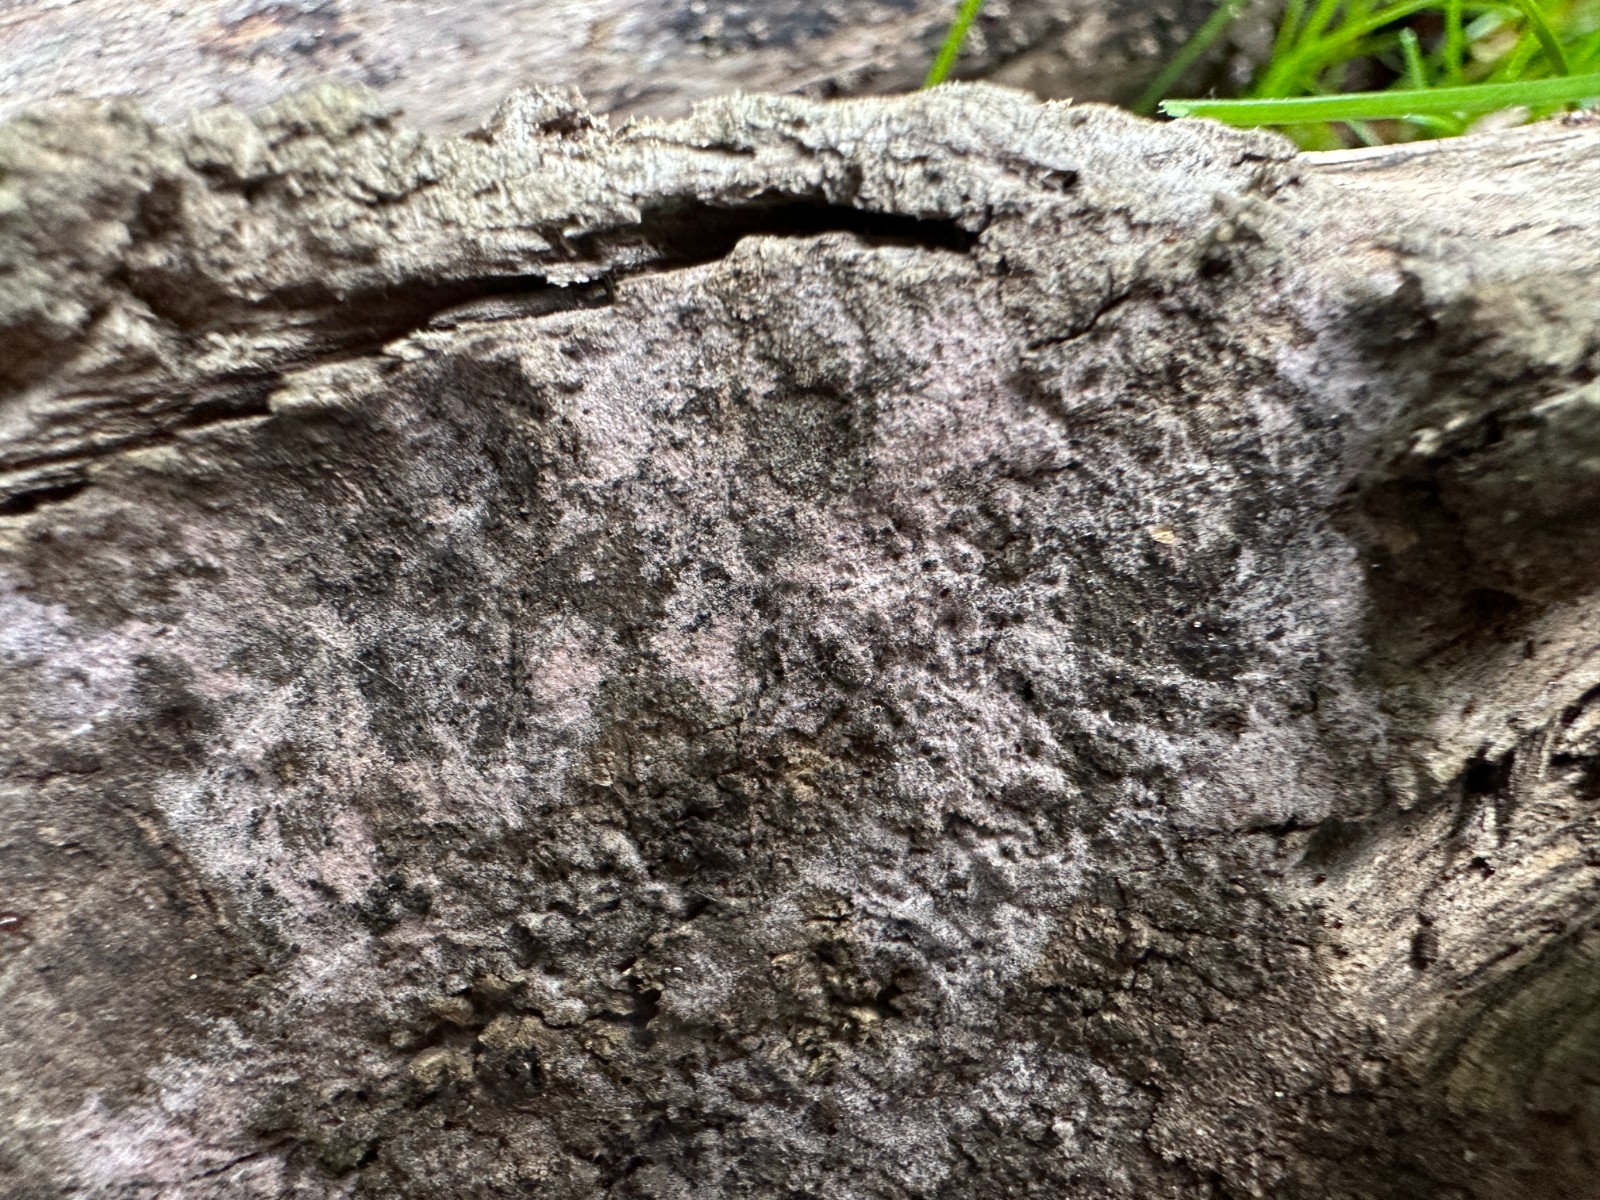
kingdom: Fungi
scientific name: Fungi
